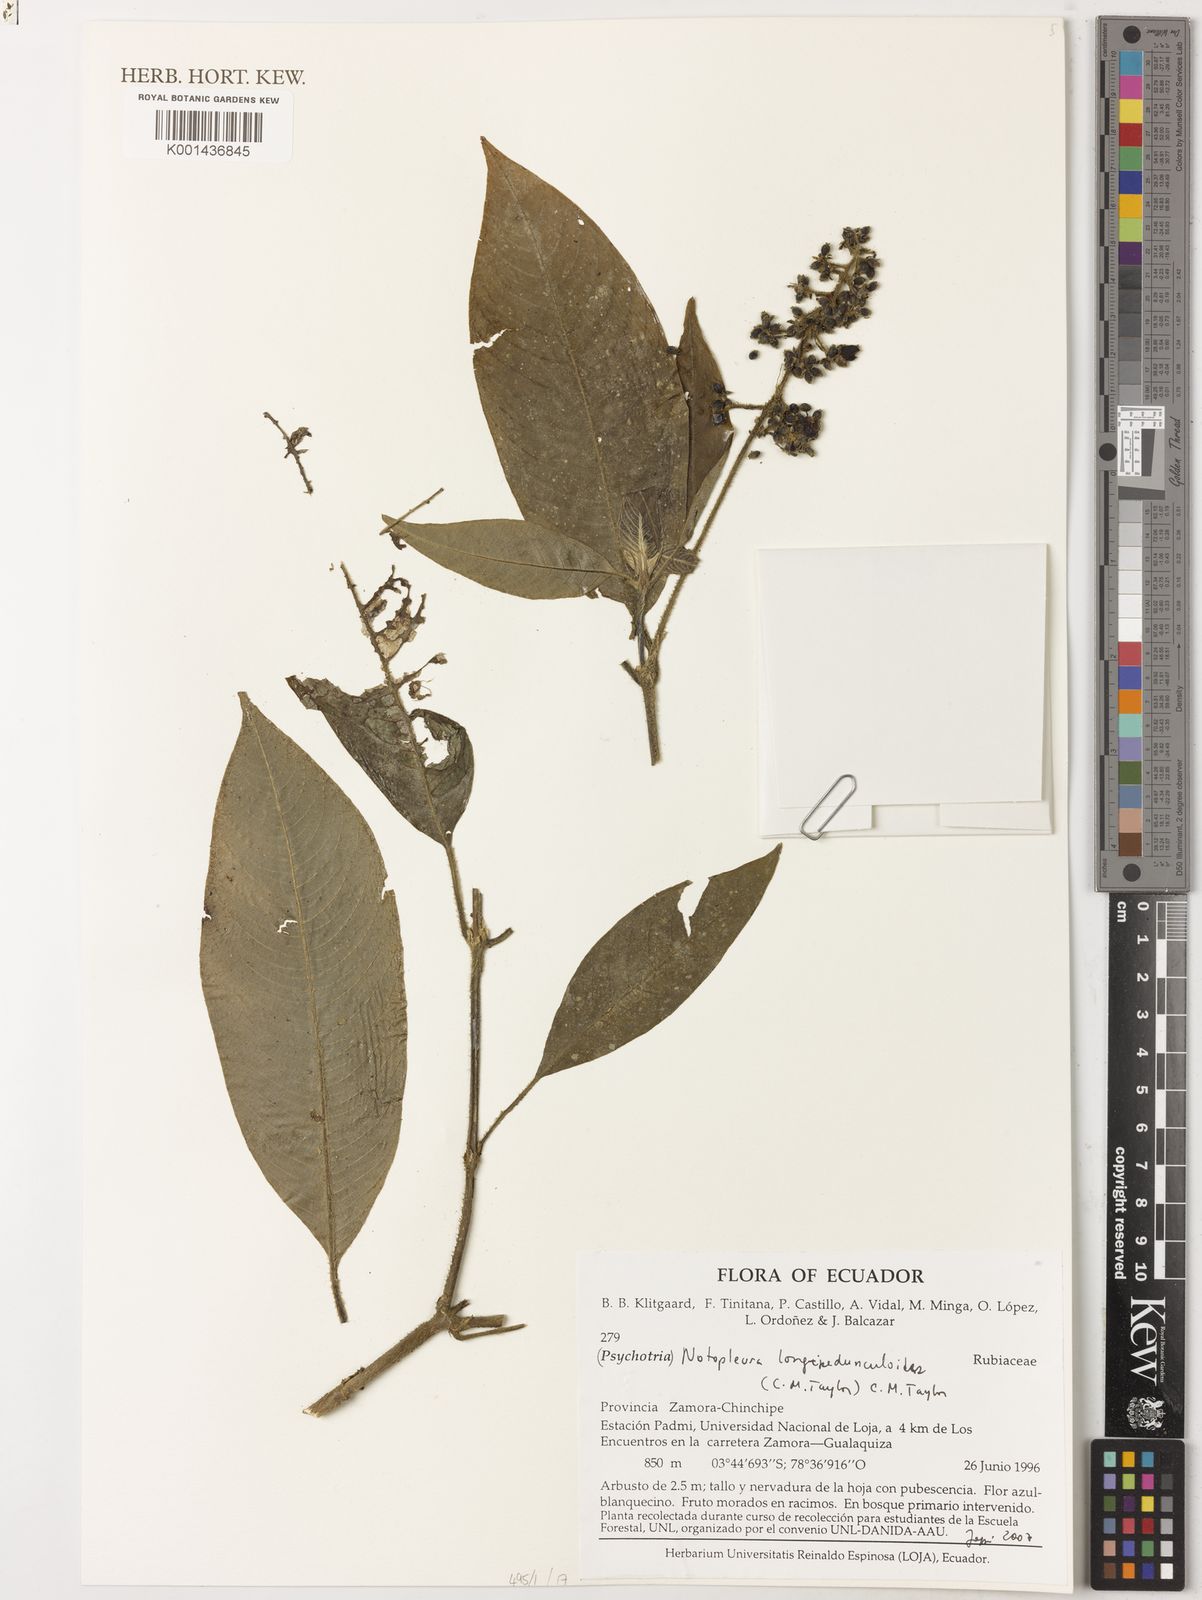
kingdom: Plantae
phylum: Tracheophyta
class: Magnoliopsida
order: Gentianales
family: Rubiaceae
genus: Notopleura
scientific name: Notopleura longipedunculoides
